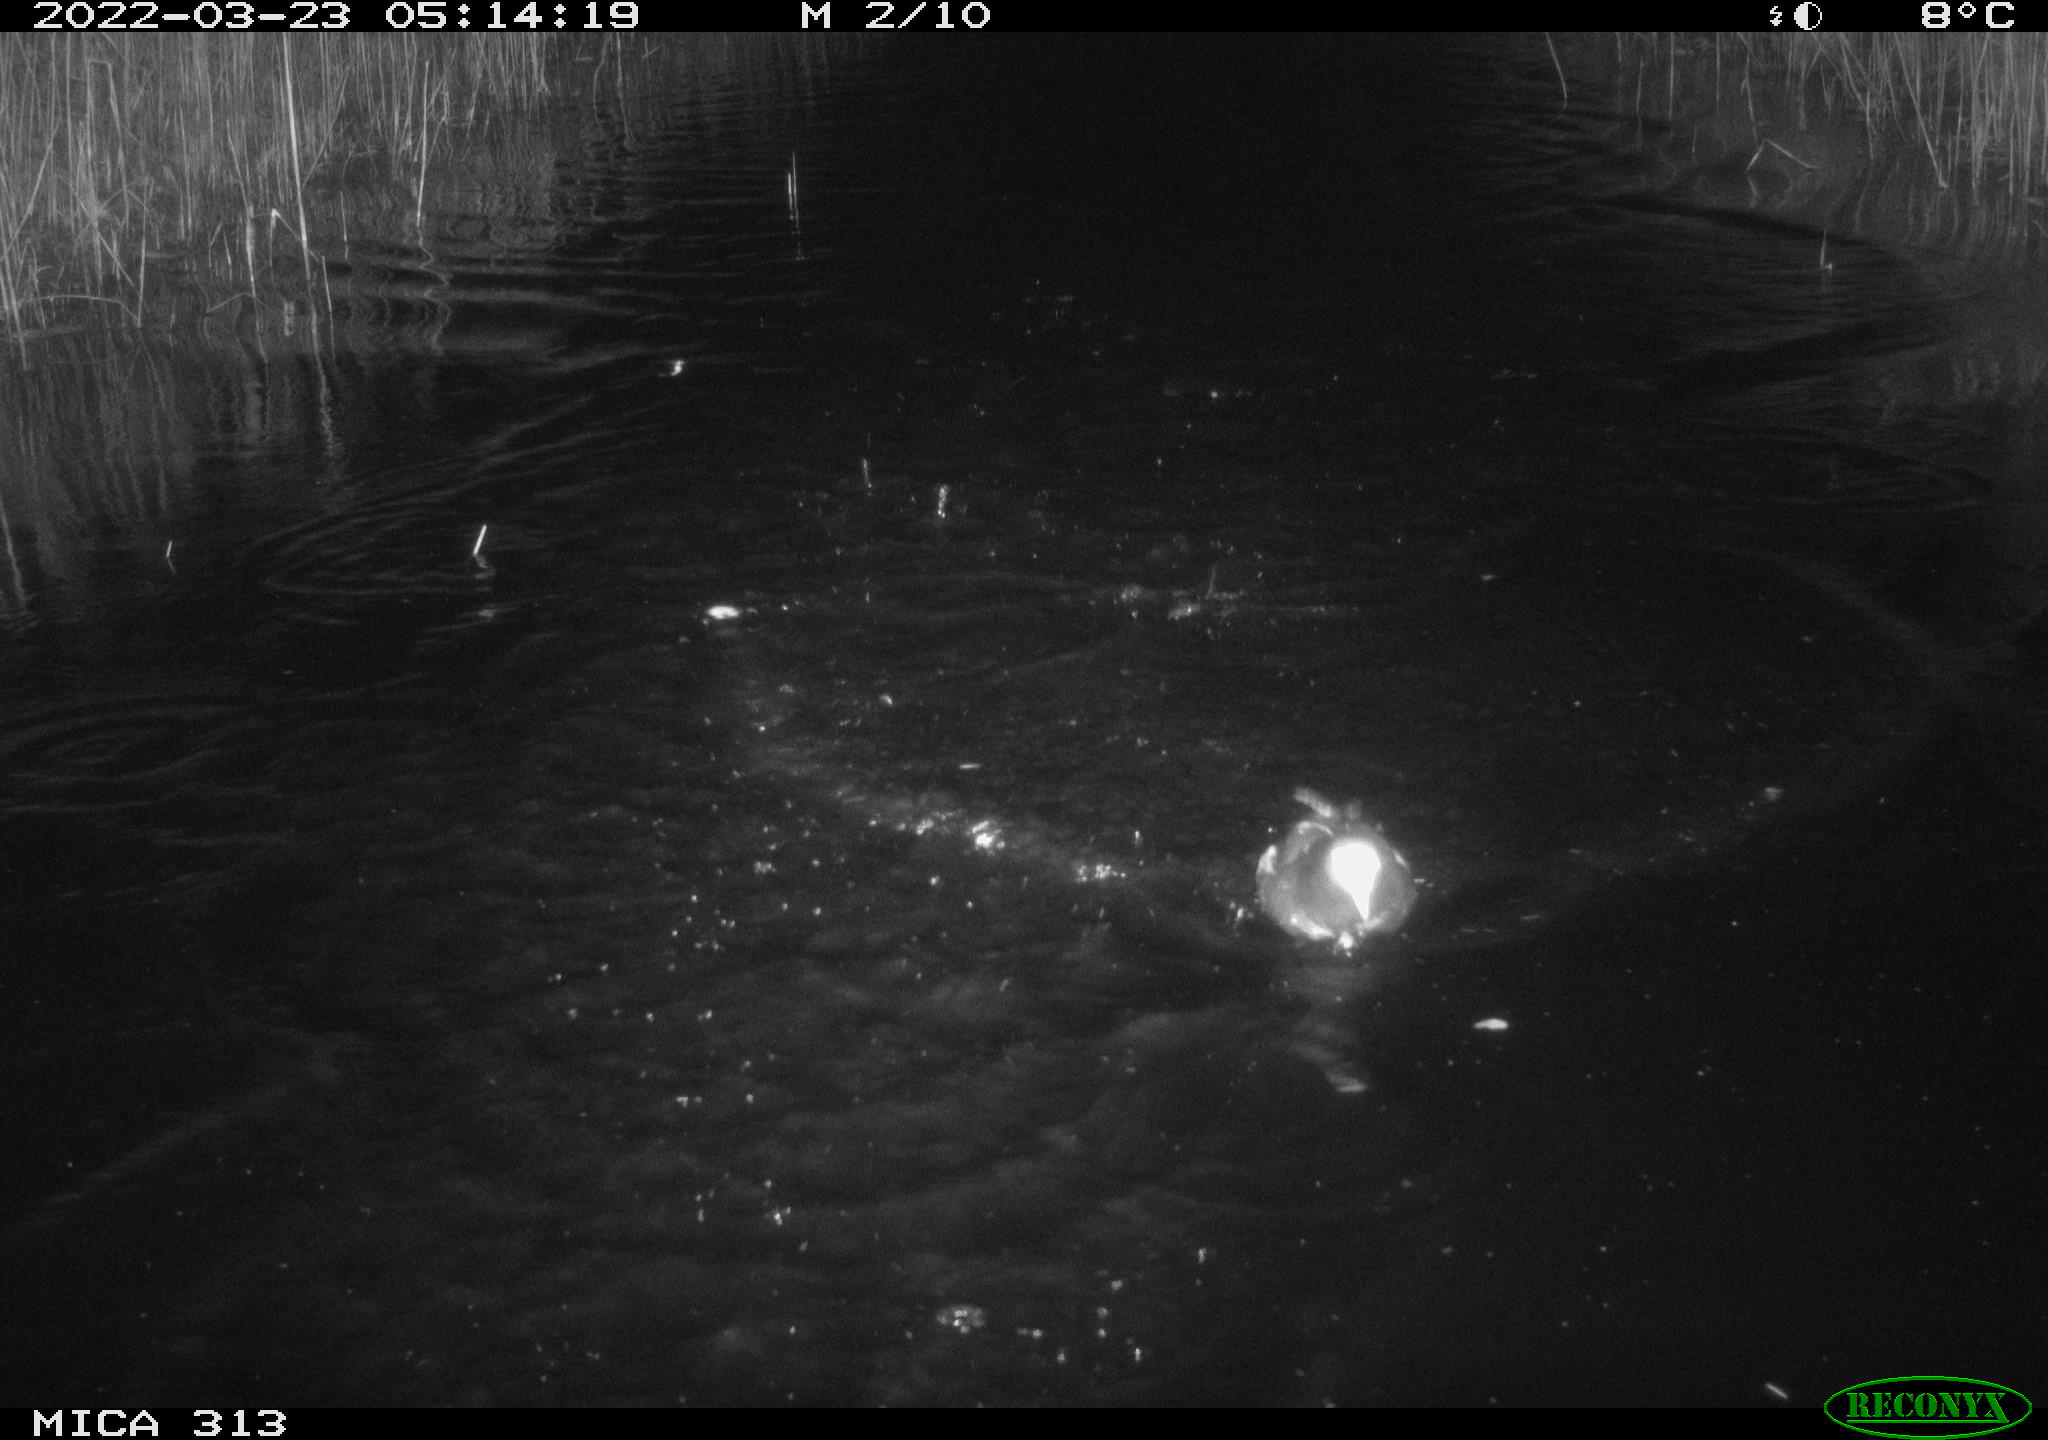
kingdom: Animalia
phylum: Chordata
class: Aves
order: Gruiformes
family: Rallidae
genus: Gallinula
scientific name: Gallinula chloropus
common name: Common moorhen
